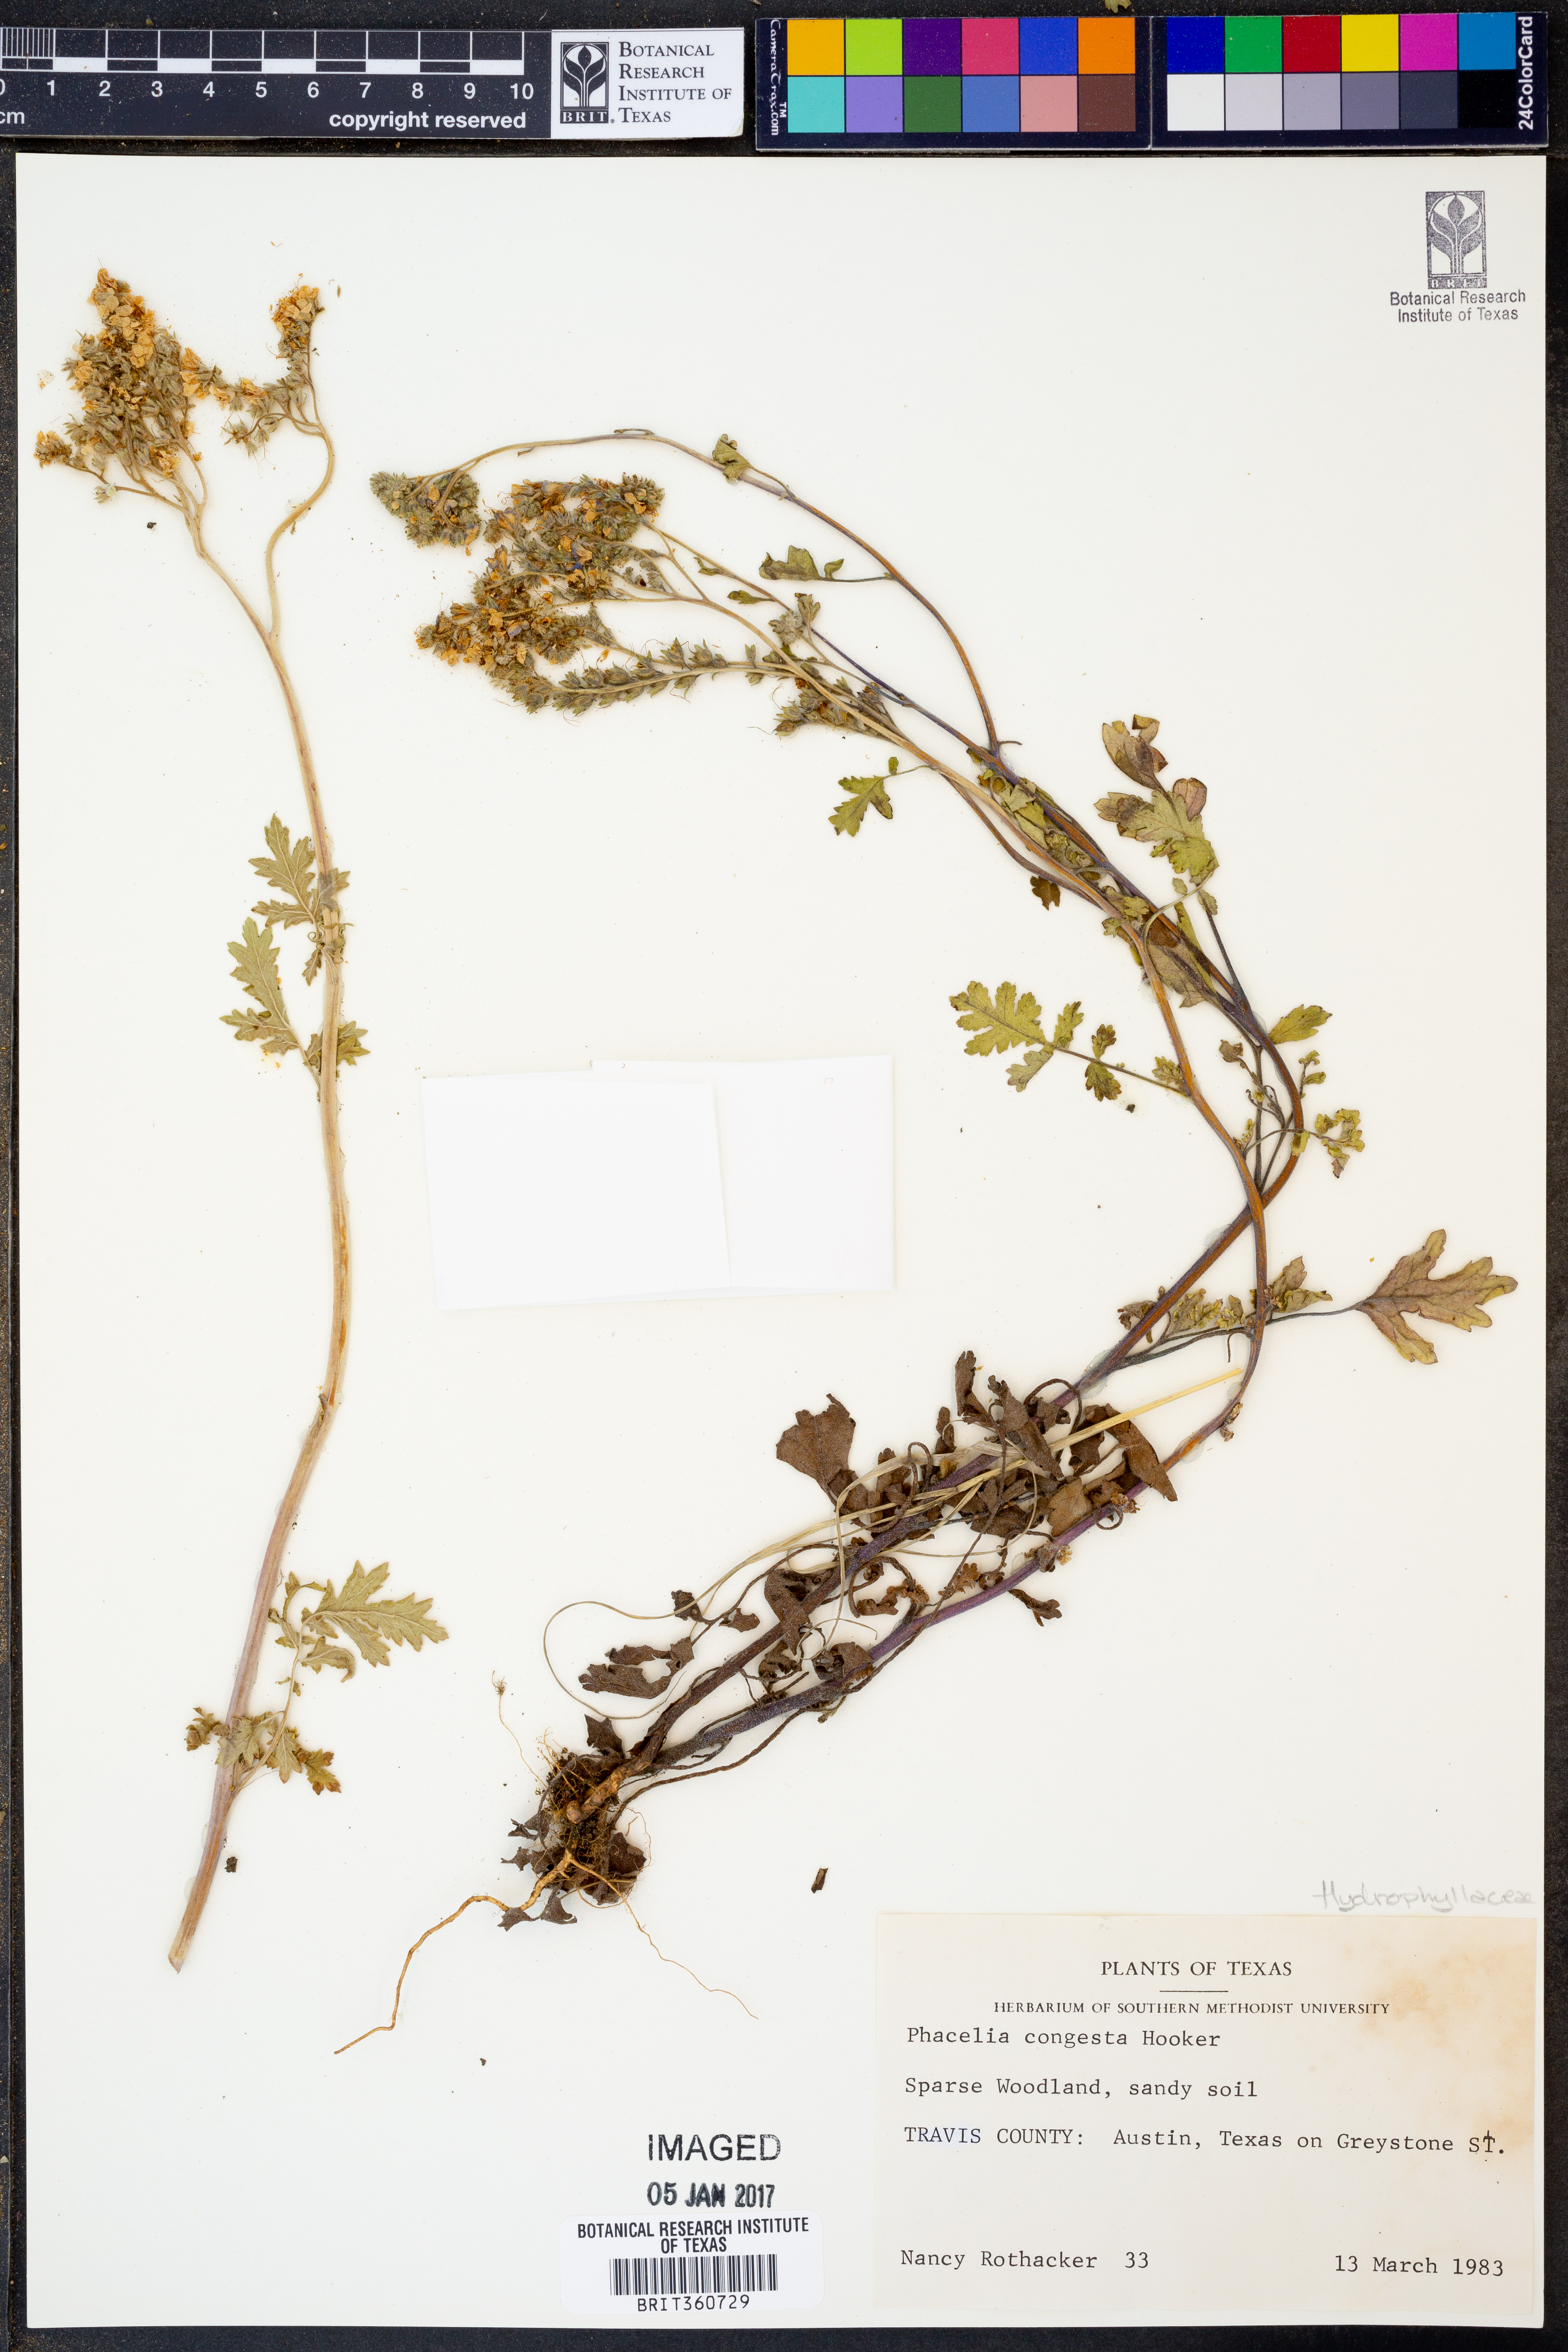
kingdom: Plantae
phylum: Tracheophyta
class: Magnoliopsida
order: Boraginales
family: Hydrophyllaceae
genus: Phacelia
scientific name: Phacelia congesta
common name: Blue curls
